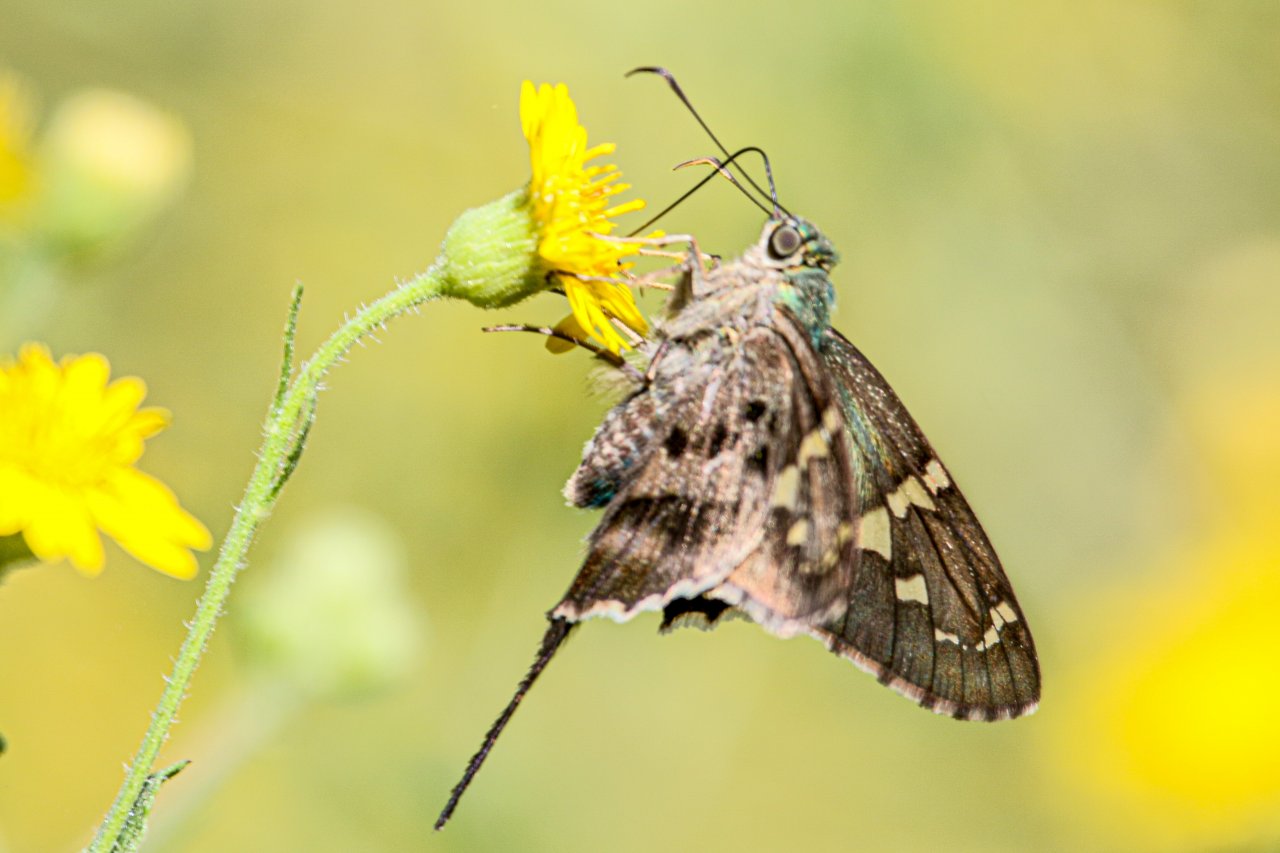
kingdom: Animalia
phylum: Arthropoda
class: Insecta
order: Lepidoptera
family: Hesperiidae
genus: Urbanus
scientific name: Urbanus proteus
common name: Long-tailed Skipper
